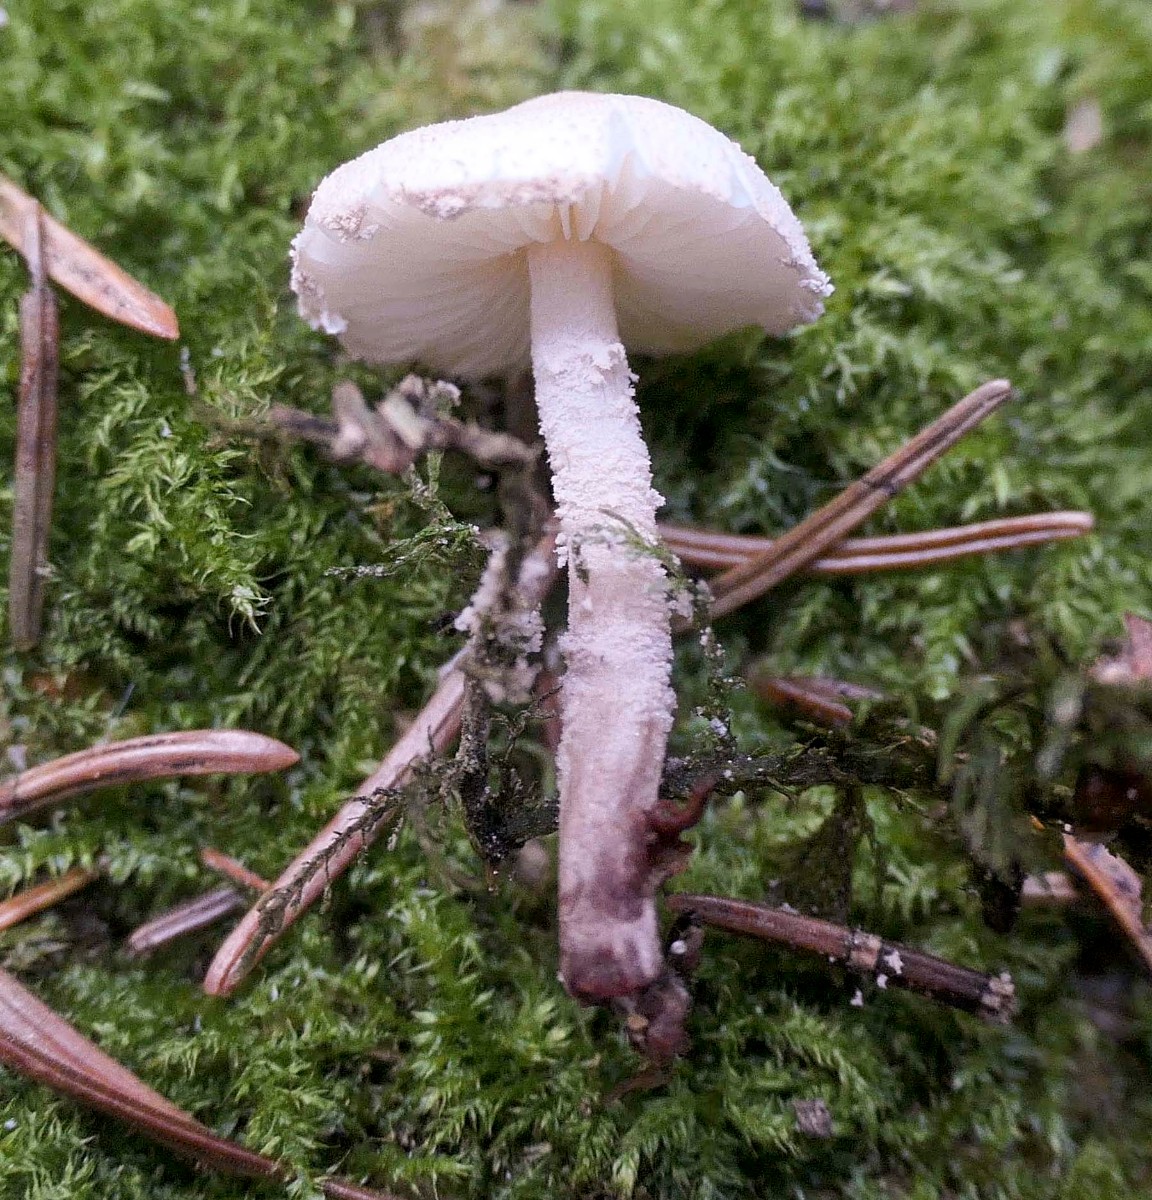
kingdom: Fungi
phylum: Basidiomycota
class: Agaricomycetes
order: Agaricales
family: Agaricaceae
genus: Cystolepiota
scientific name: Cystolepiota seminuda
